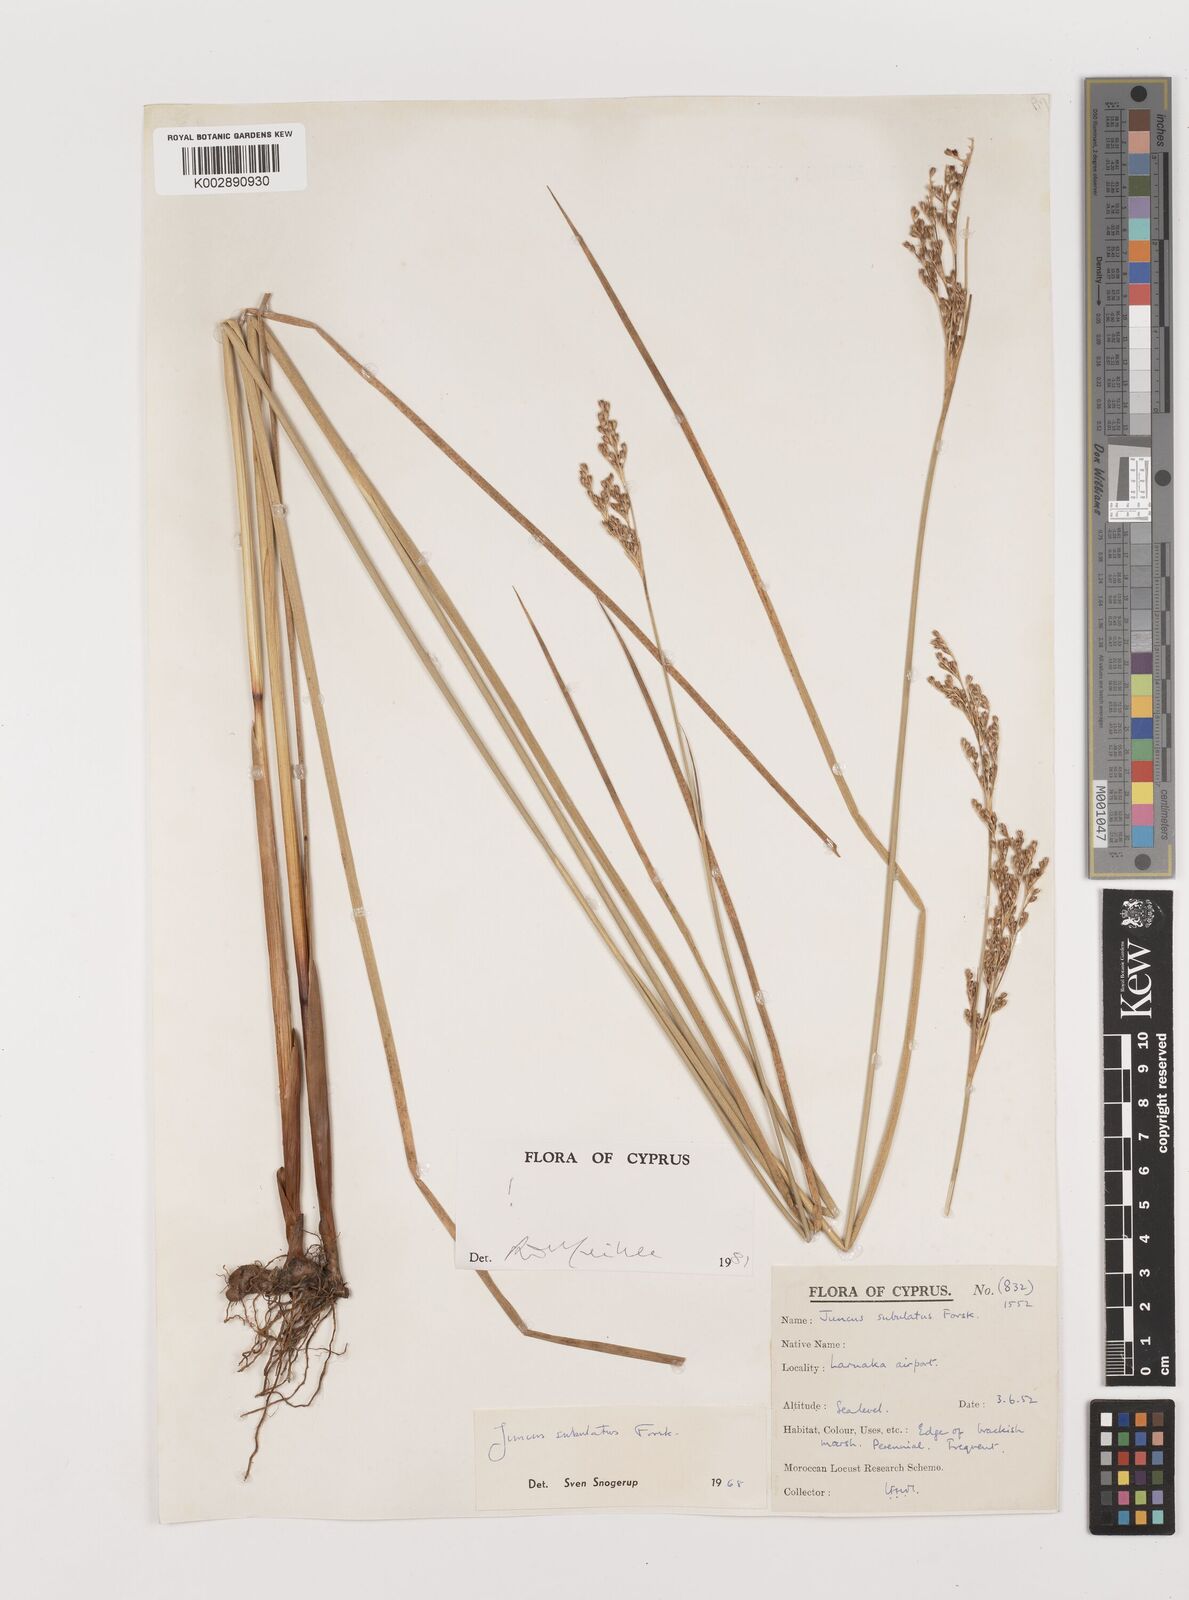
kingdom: Plantae
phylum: Tracheophyta
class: Liliopsida
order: Poales
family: Juncaceae
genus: Juncus
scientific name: Juncus subulatus
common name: Somerset rush
